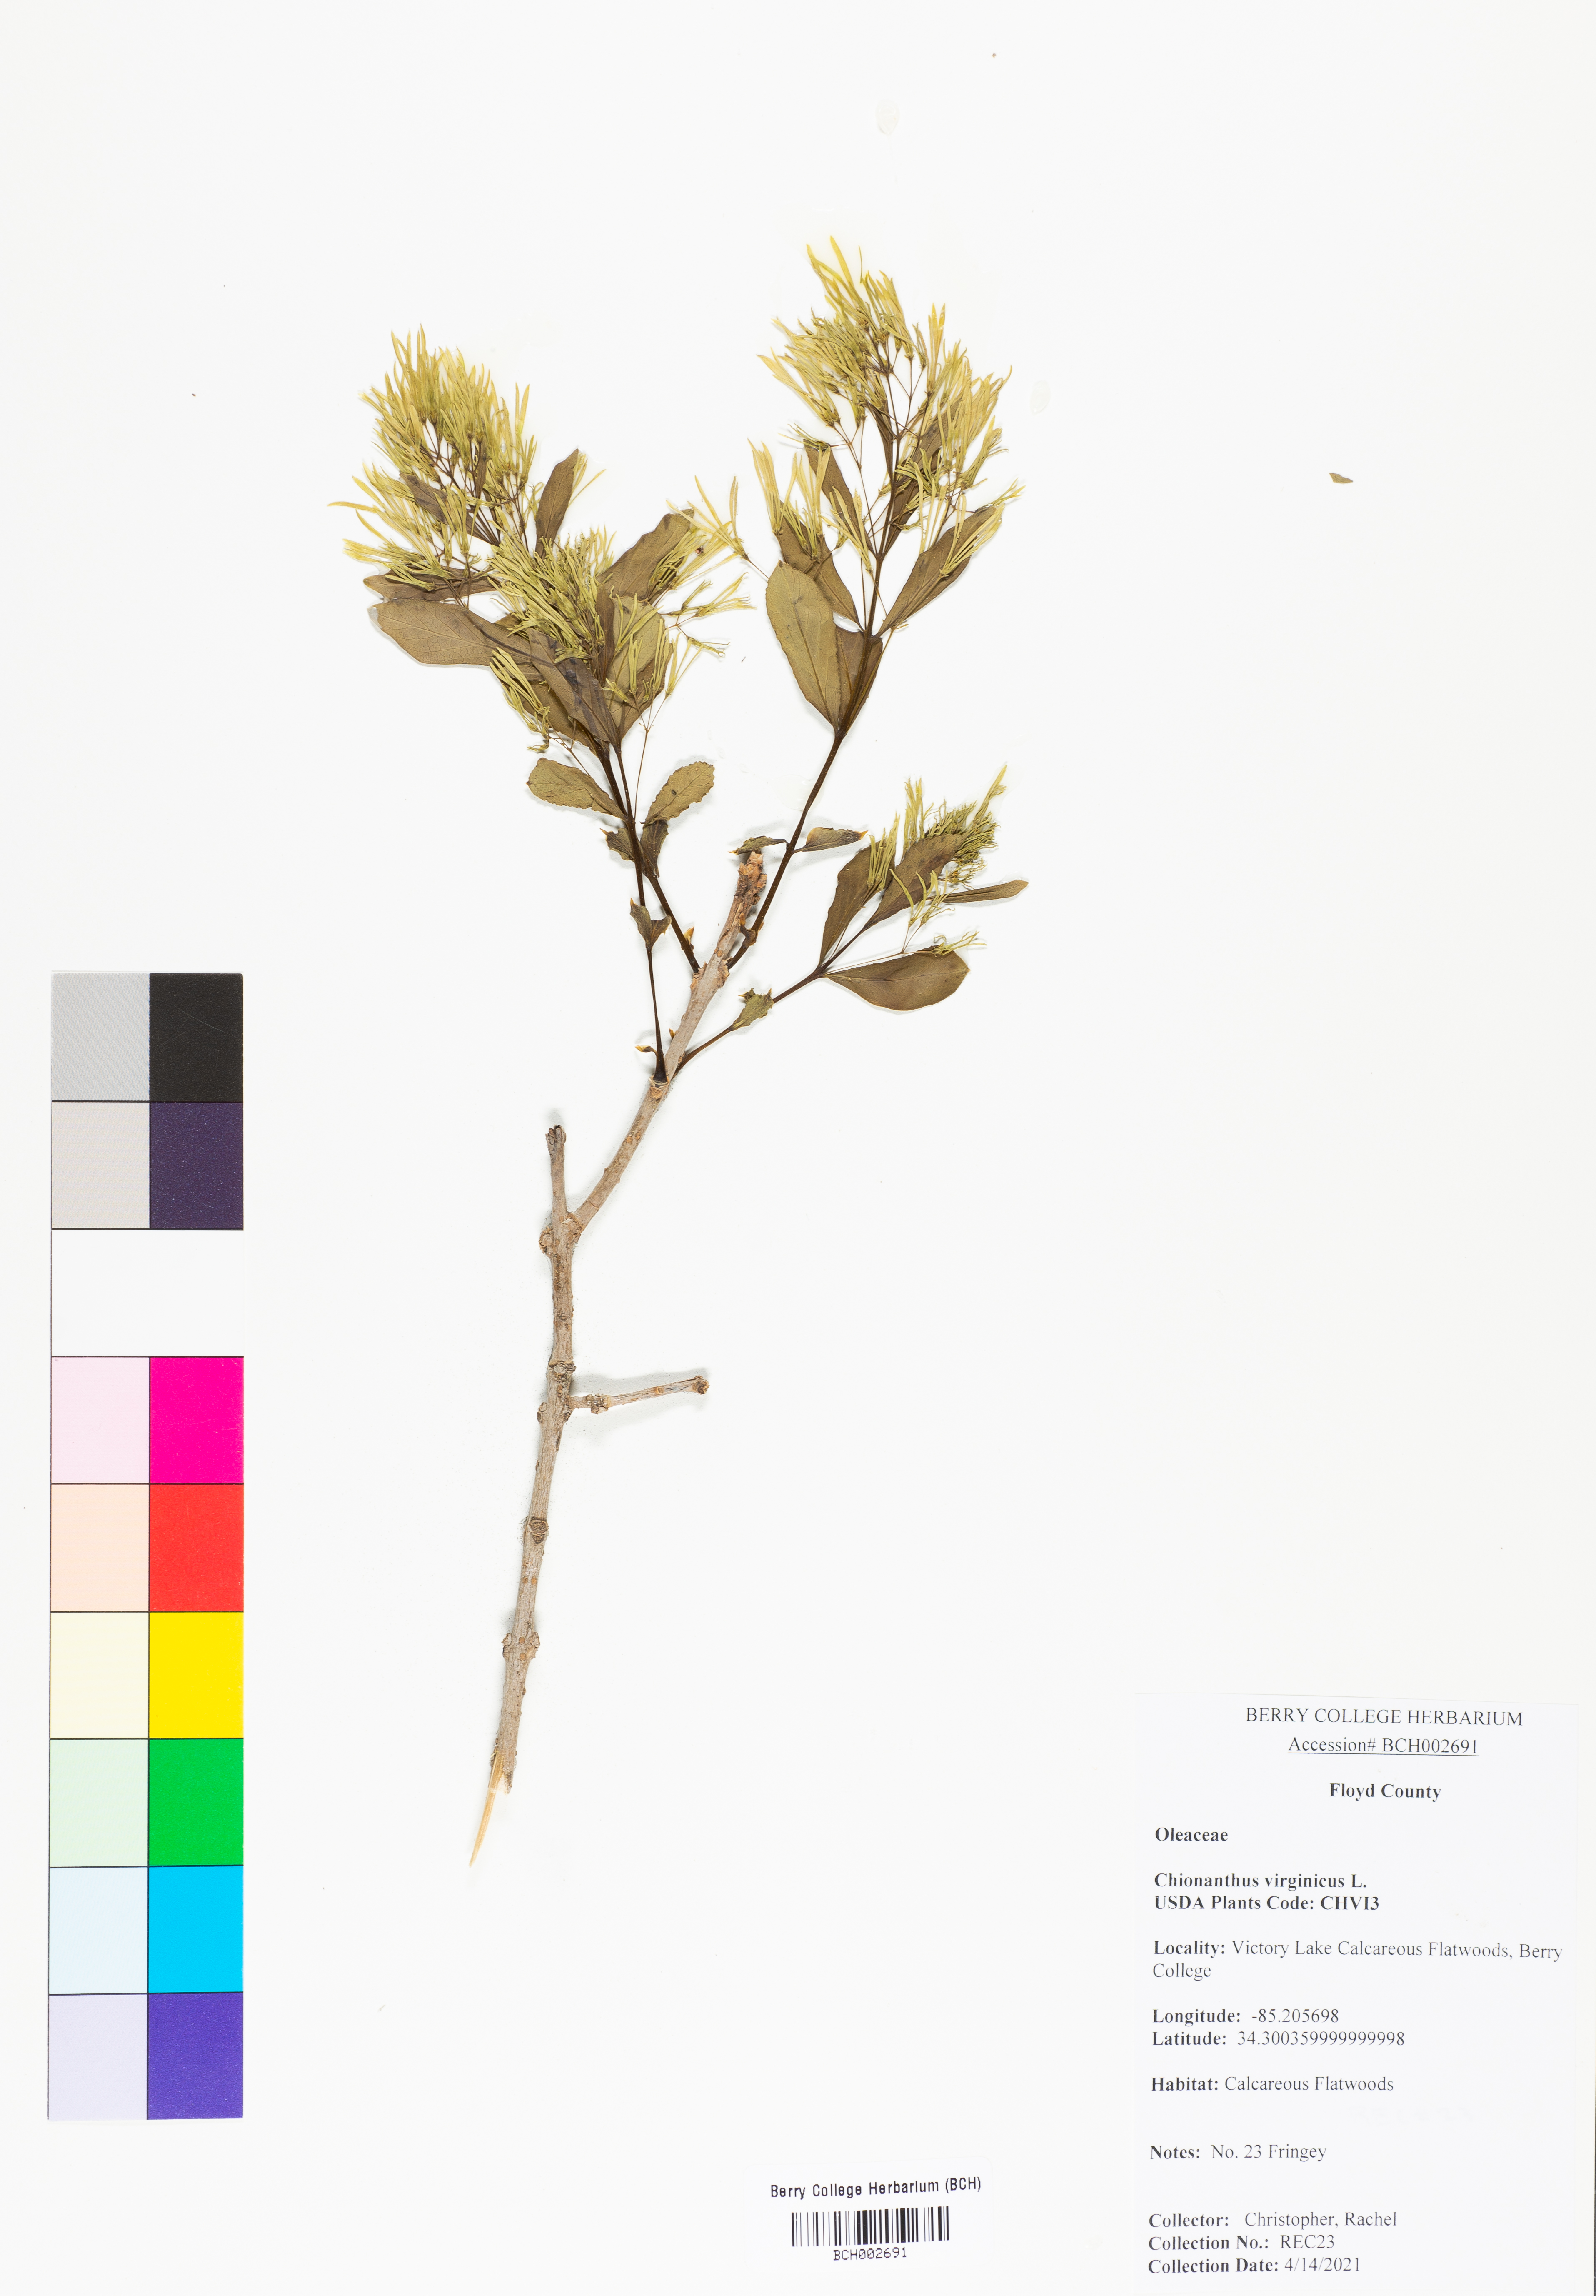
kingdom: Plantae
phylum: Tracheophyta
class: Magnoliopsida
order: Lamiales
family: Oleaceae
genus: Chionanthus
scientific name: Chionanthus virginicus
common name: American fringetree
